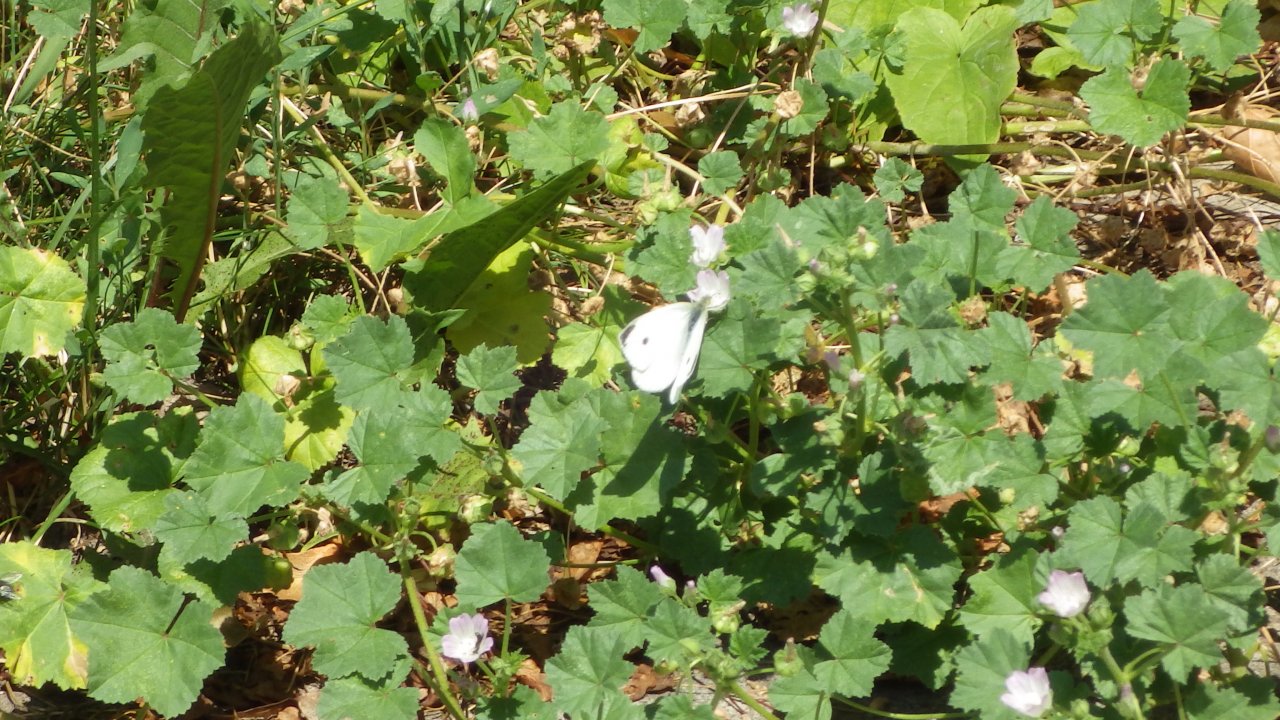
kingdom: Animalia
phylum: Arthropoda
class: Insecta
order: Lepidoptera
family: Pieridae
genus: Pieris
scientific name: Pieris rapae
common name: Cabbage White
